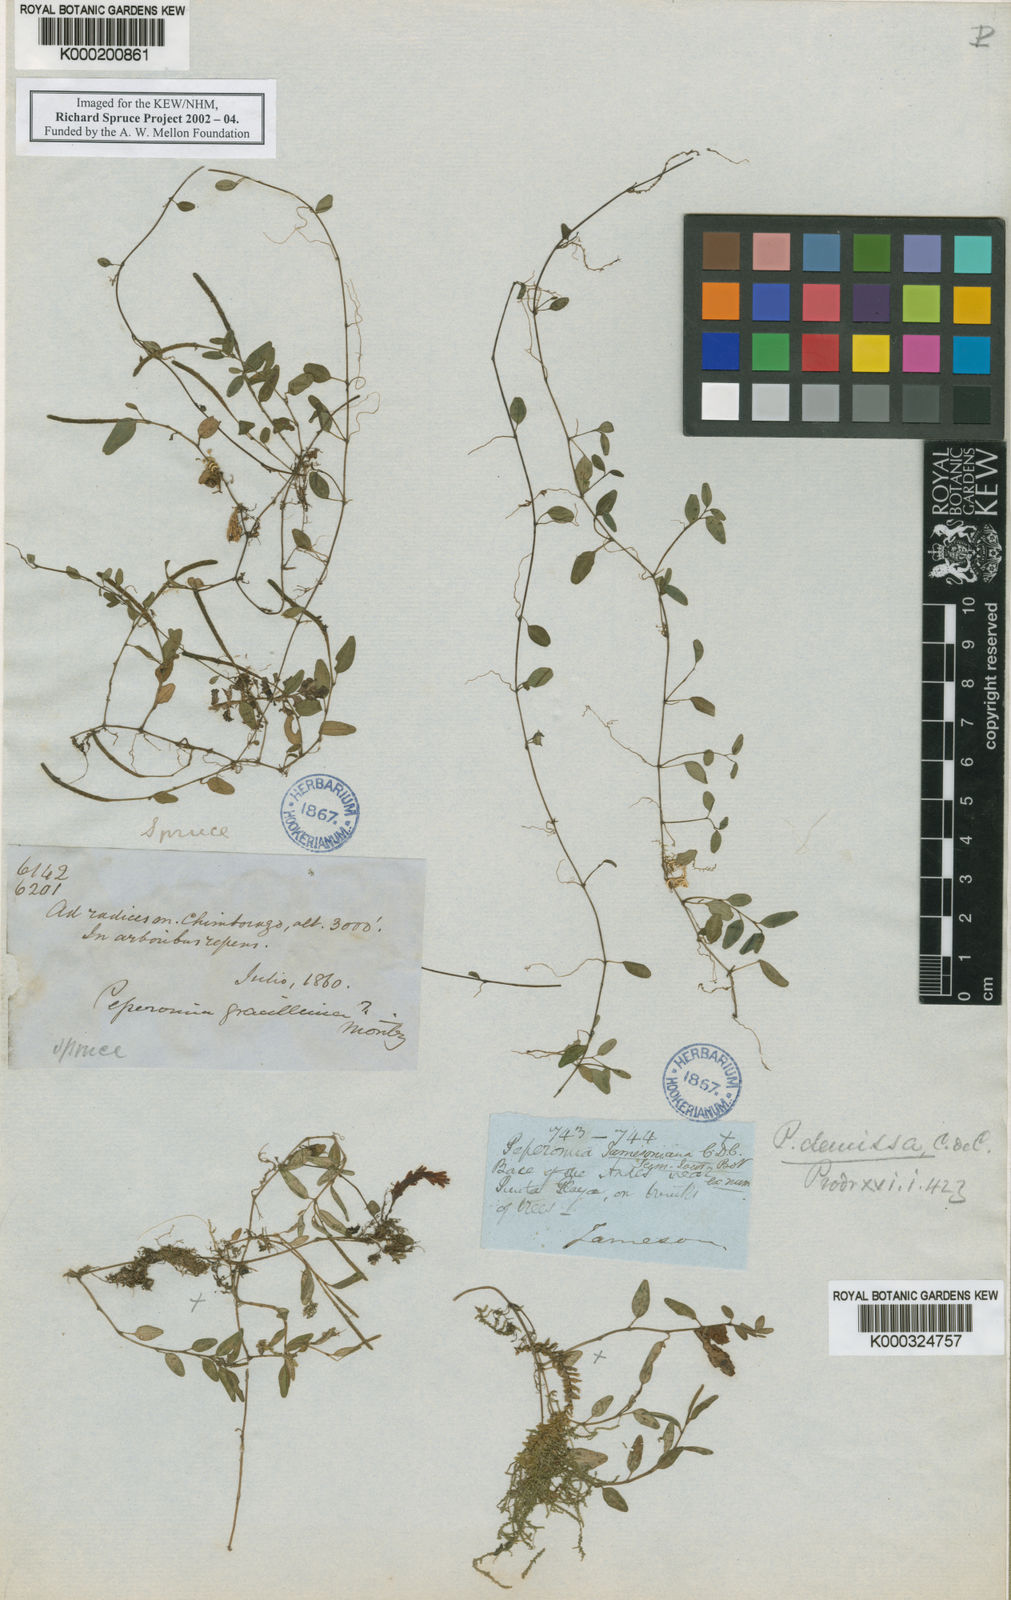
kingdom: Plantae
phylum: Tracheophyta
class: Magnoliopsida
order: Piperales
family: Piperaceae
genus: Peperomia
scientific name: Peperomia jamesoniana
